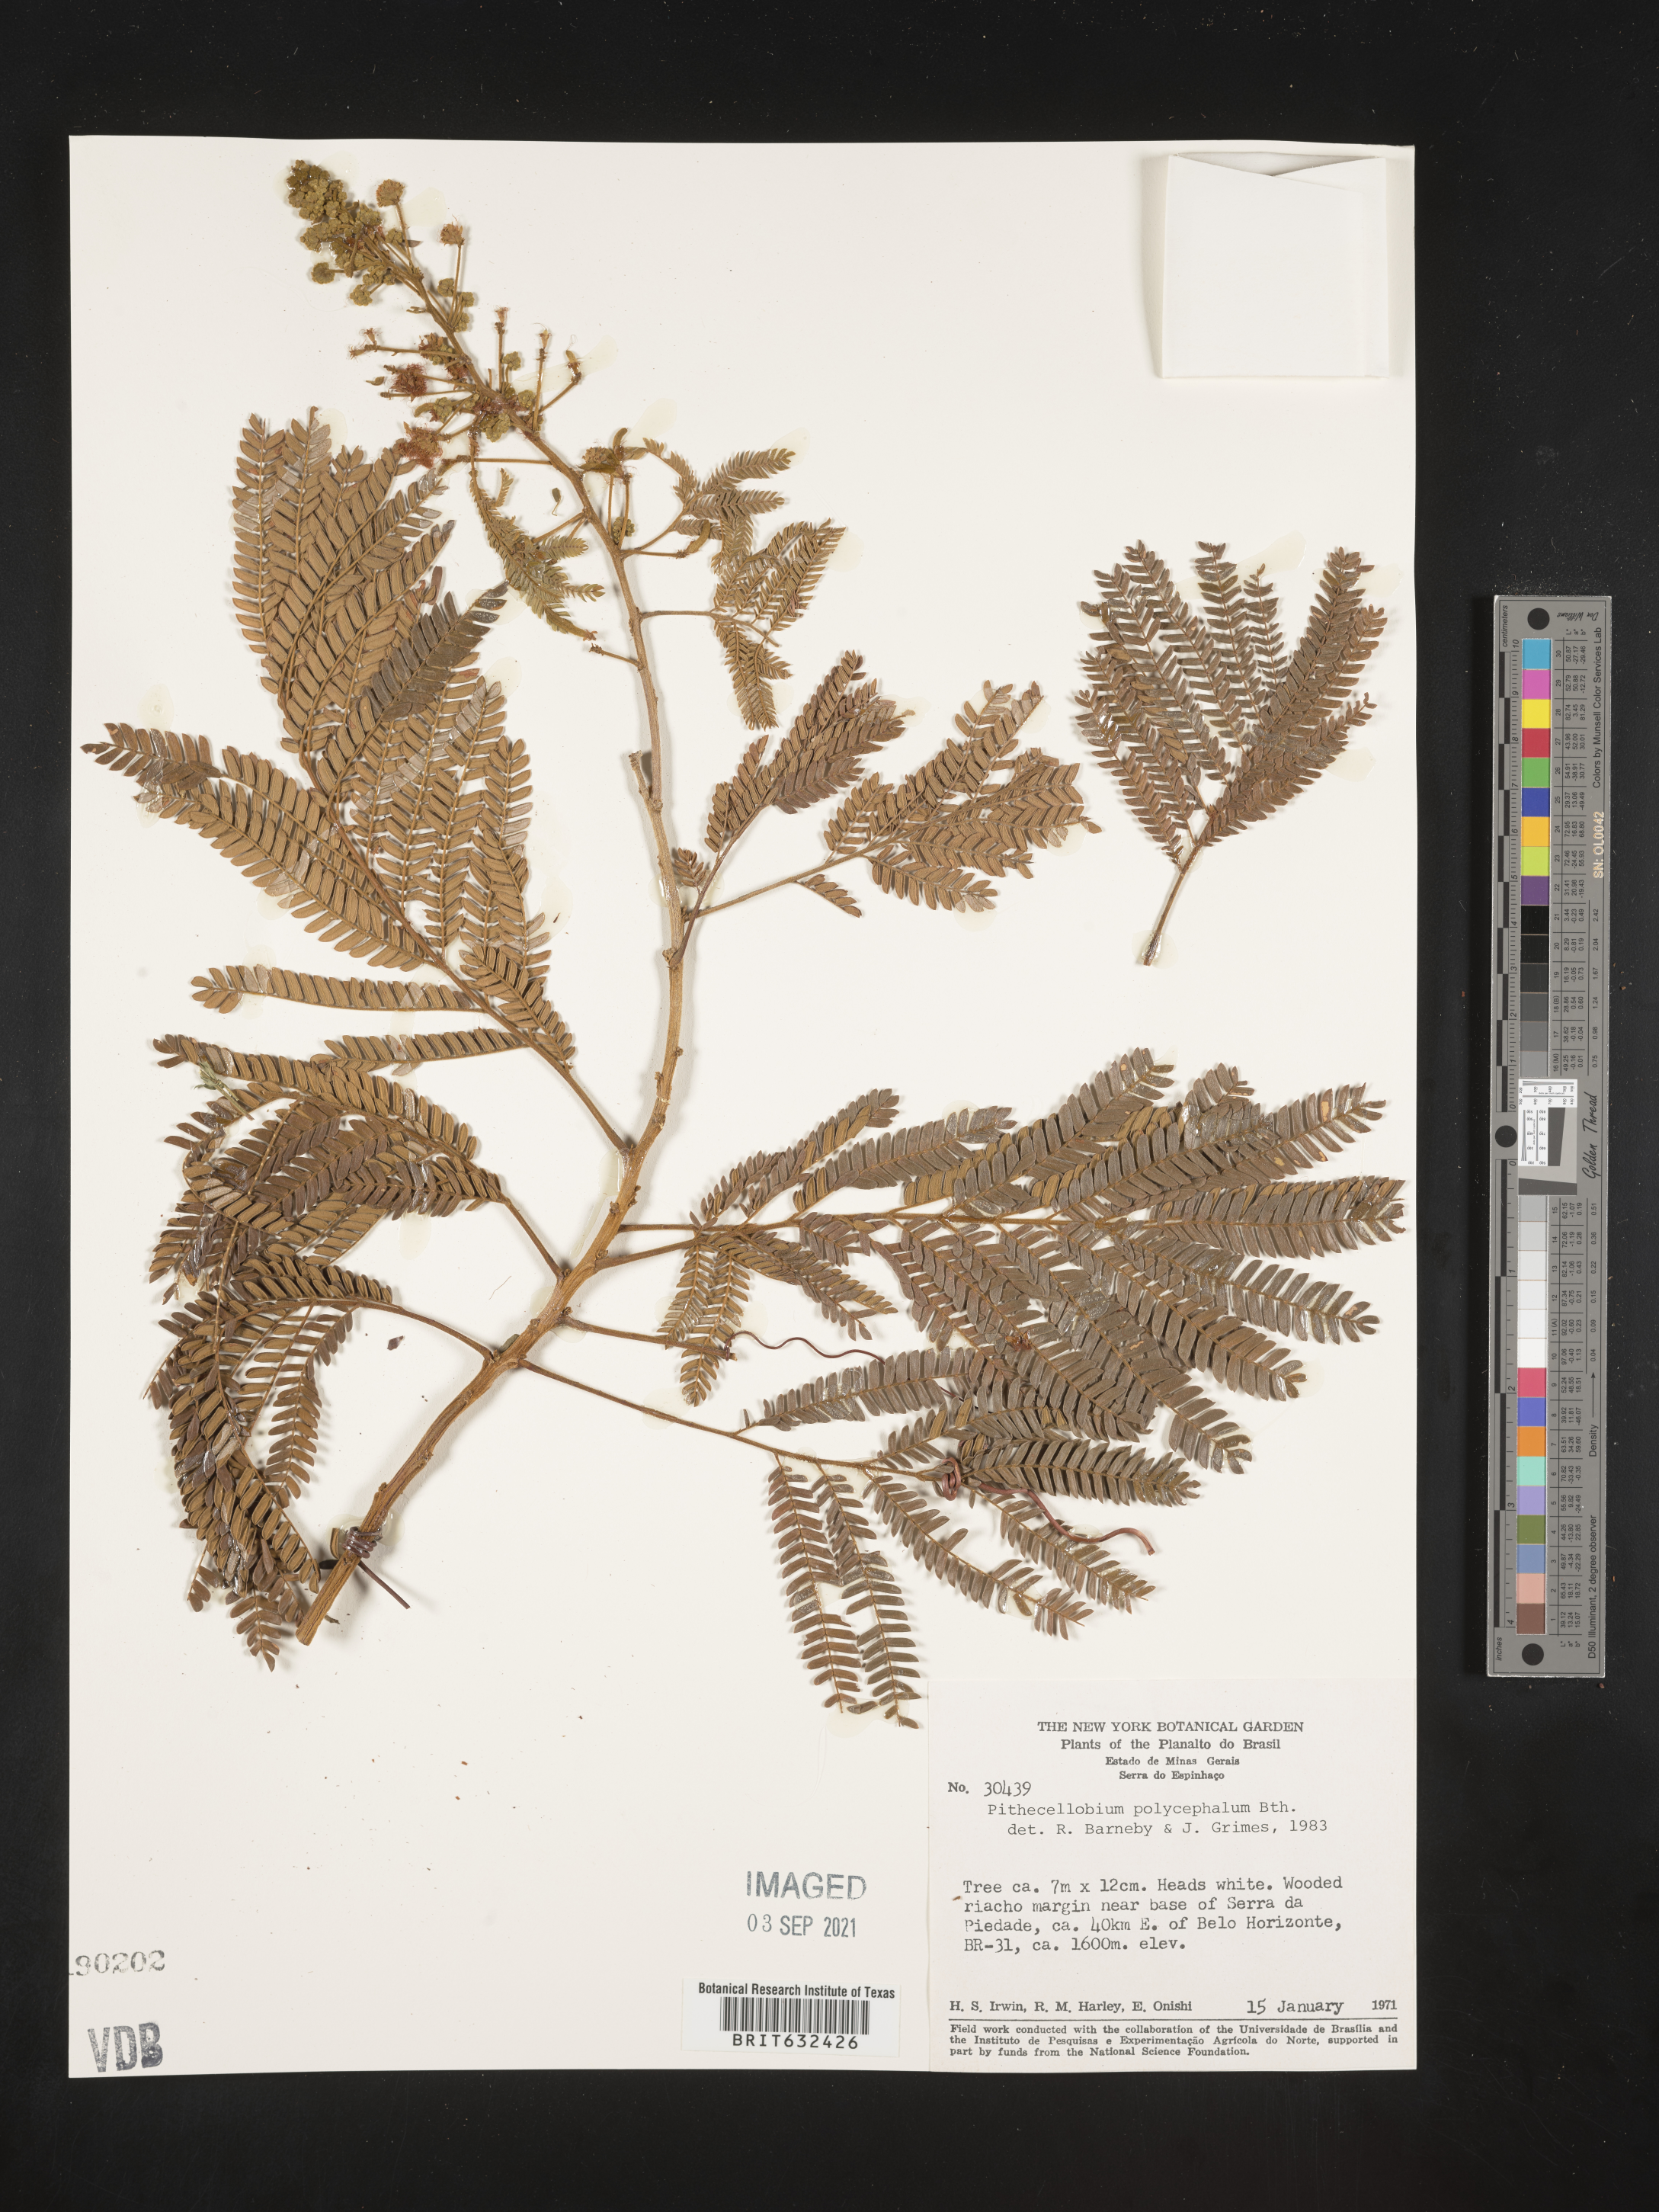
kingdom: Plantae
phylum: Tracheophyta
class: Magnoliopsida
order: Fabales
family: Fabaceae
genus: Pithecellobium
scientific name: Pithecellobium
